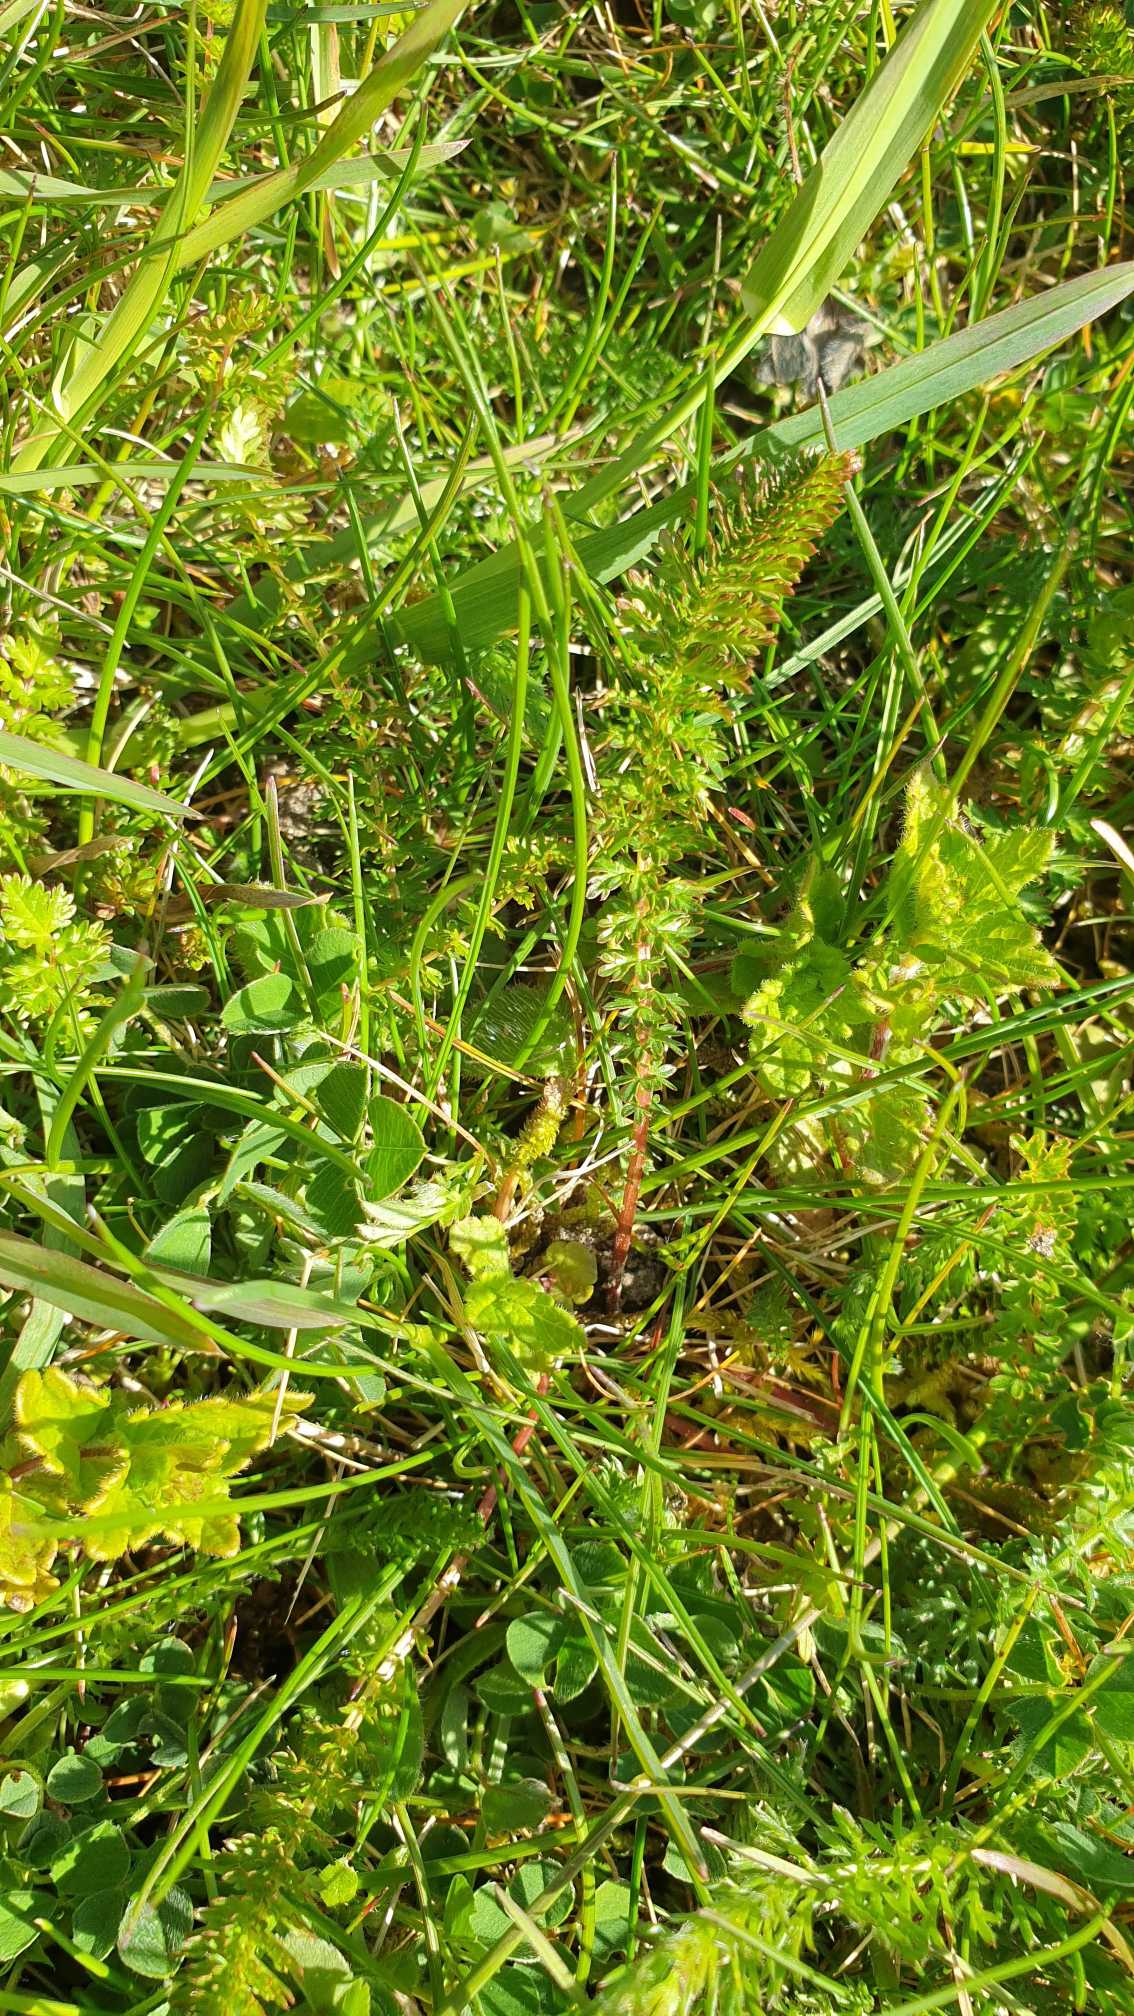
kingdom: Plantae
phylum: Tracheophyta
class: Magnoliopsida
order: Rosales
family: Rosaceae
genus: Filipendula
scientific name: Filipendula vulgaris
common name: Knoldet mjødurt
